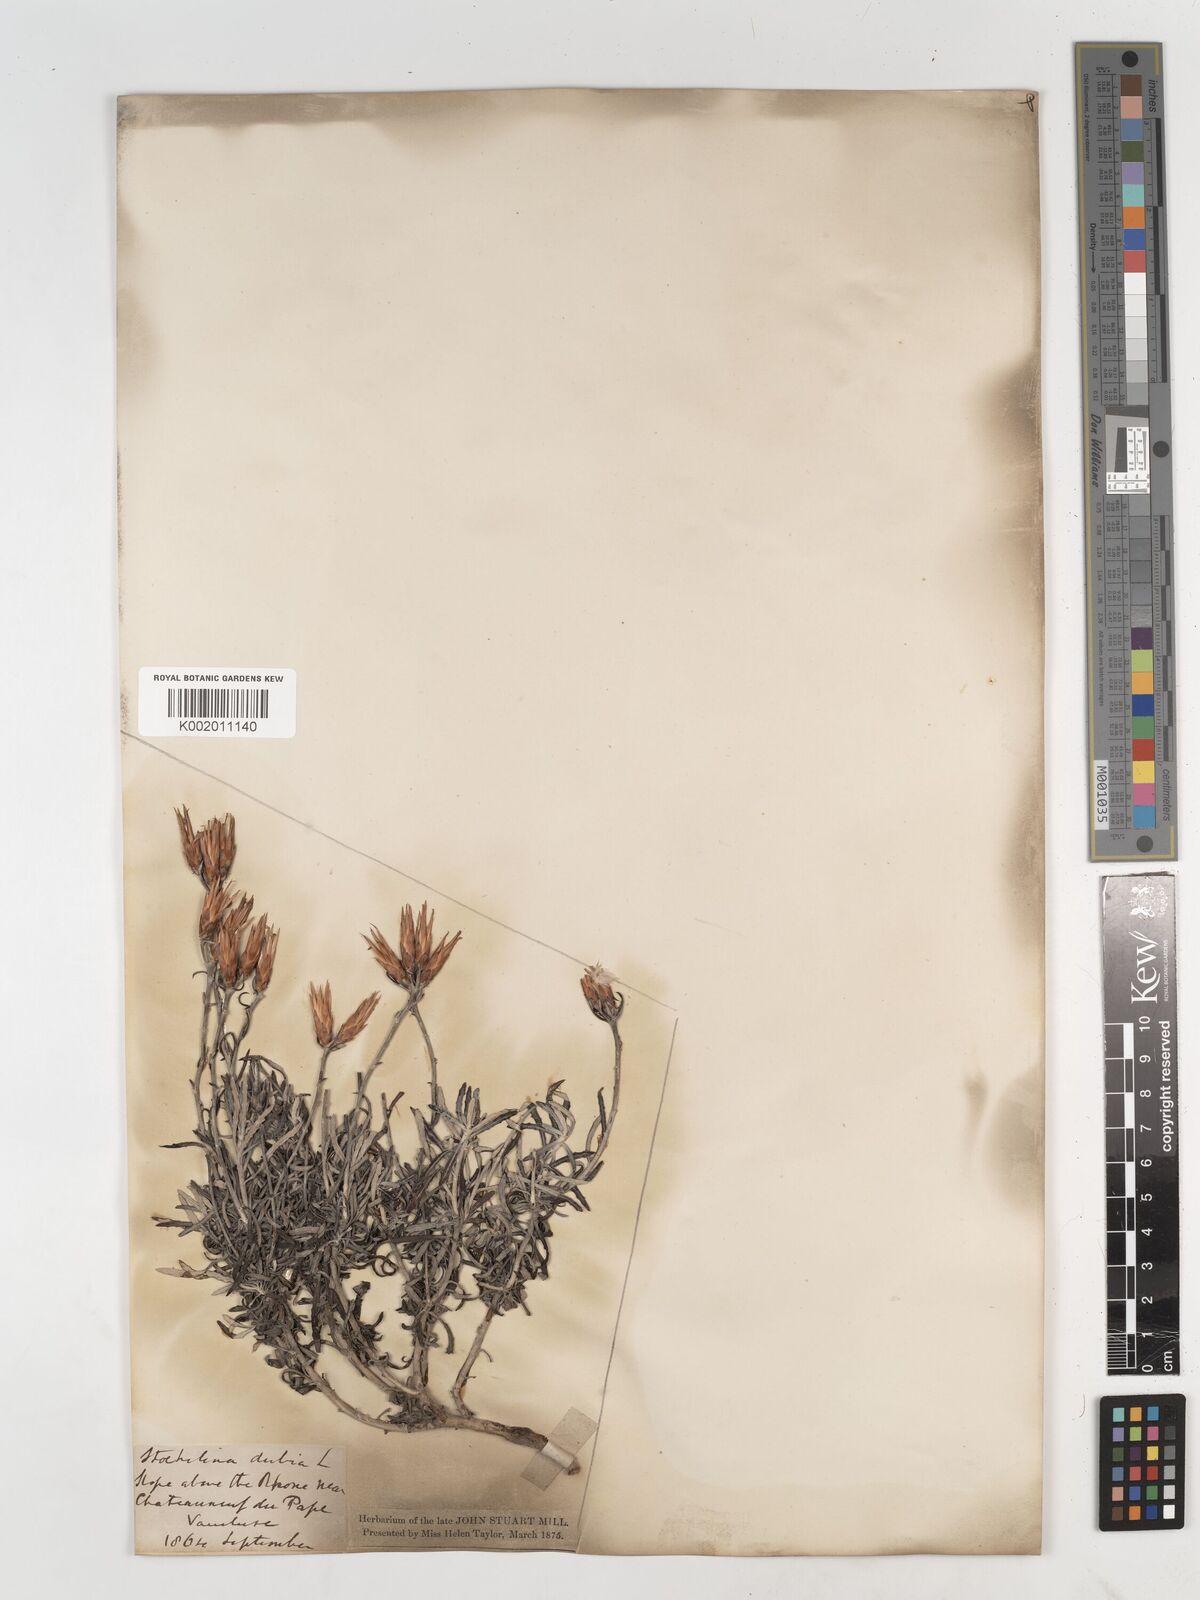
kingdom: Plantae
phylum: Tracheophyta
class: Magnoliopsida
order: Asterales
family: Asteraceae
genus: Staehelina
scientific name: Staehelina dubia
